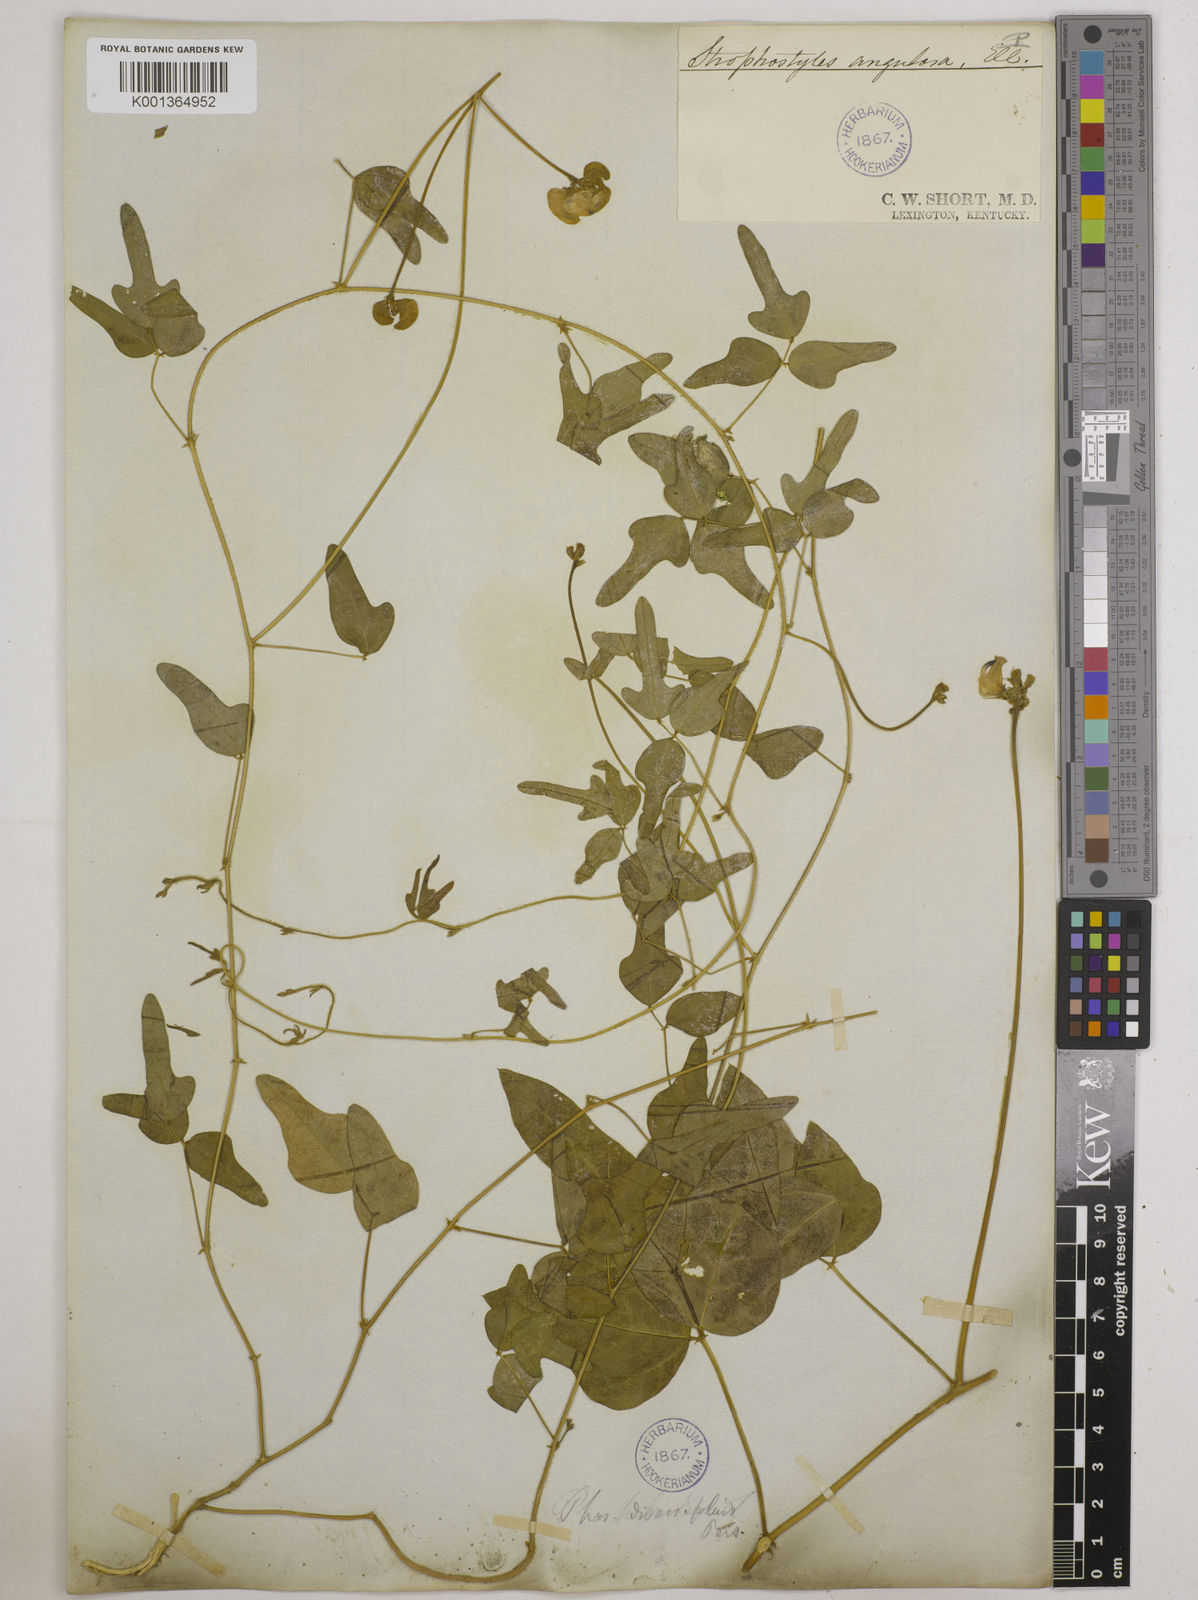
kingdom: Plantae
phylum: Tracheophyta
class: Magnoliopsida
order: Fabales
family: Fabaceae
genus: Strophostyles
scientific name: Strophostyles
